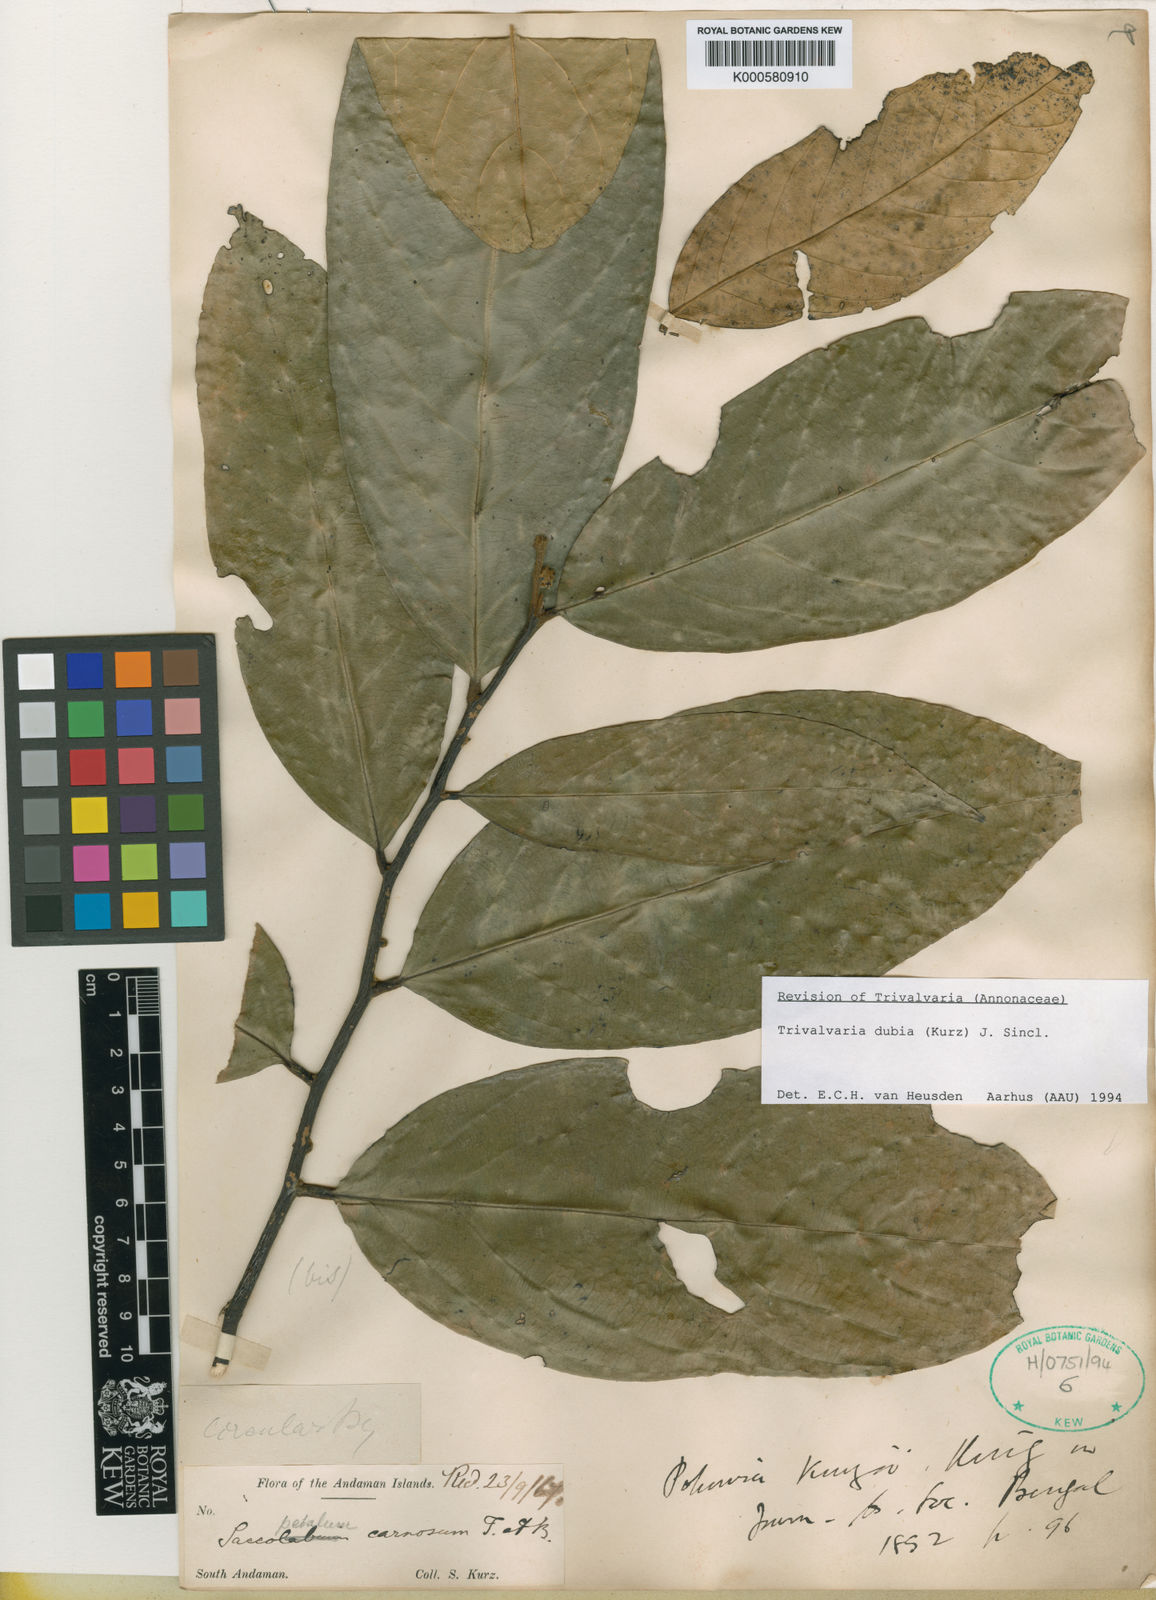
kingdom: Plantae
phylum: Tracheophyta
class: Magnoliopsida
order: Magnoliales
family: Annonaceae
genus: Trivalvaria
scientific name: Trivalvaria dubia
